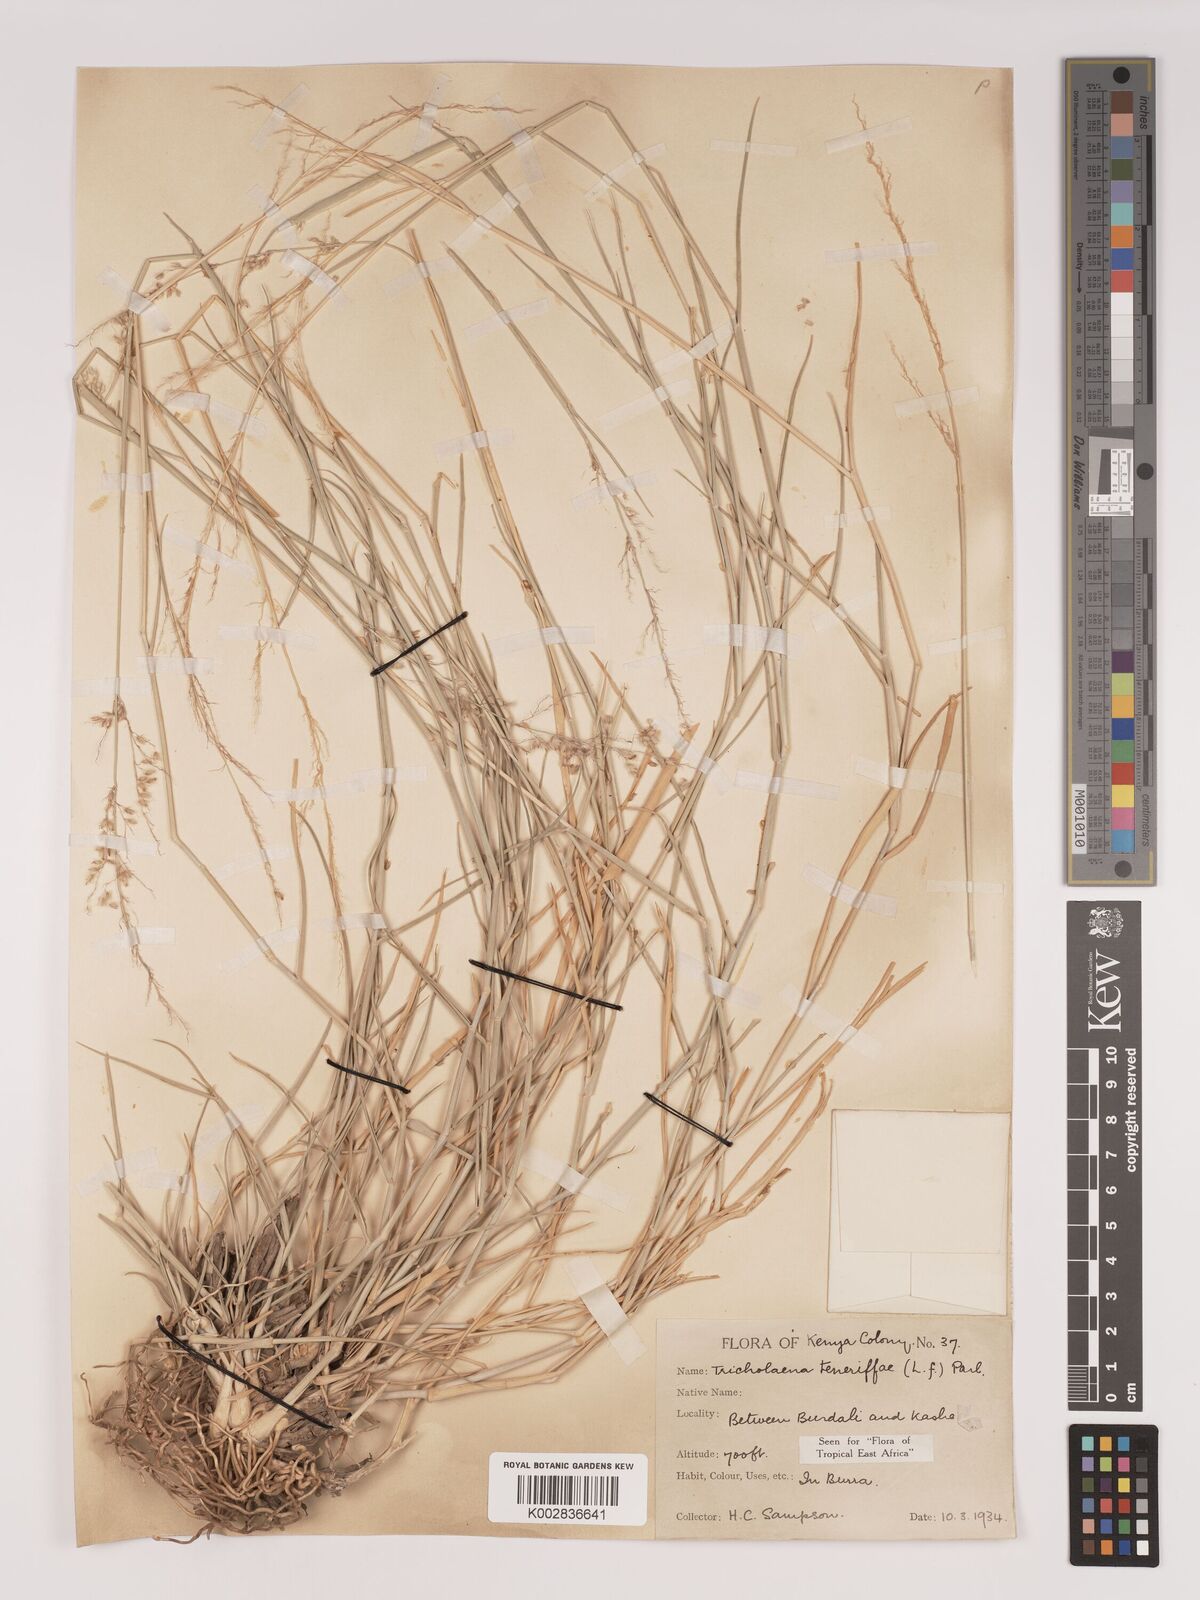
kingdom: Plantae
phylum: Tracheophyta
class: Liliopsida
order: Poales
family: Poaceae
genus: Tricholaena
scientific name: Tricholaena teneriffae
